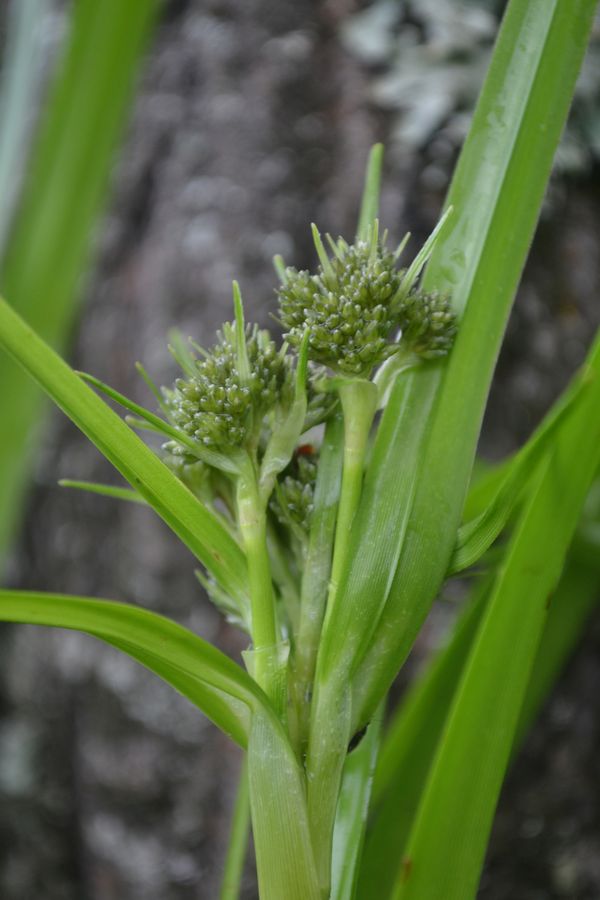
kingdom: Plantae
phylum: Tracheophyta
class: Liliopsida
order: Poales
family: Cyperaceae
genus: Scirpus
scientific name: Scirpus sylvaticus
